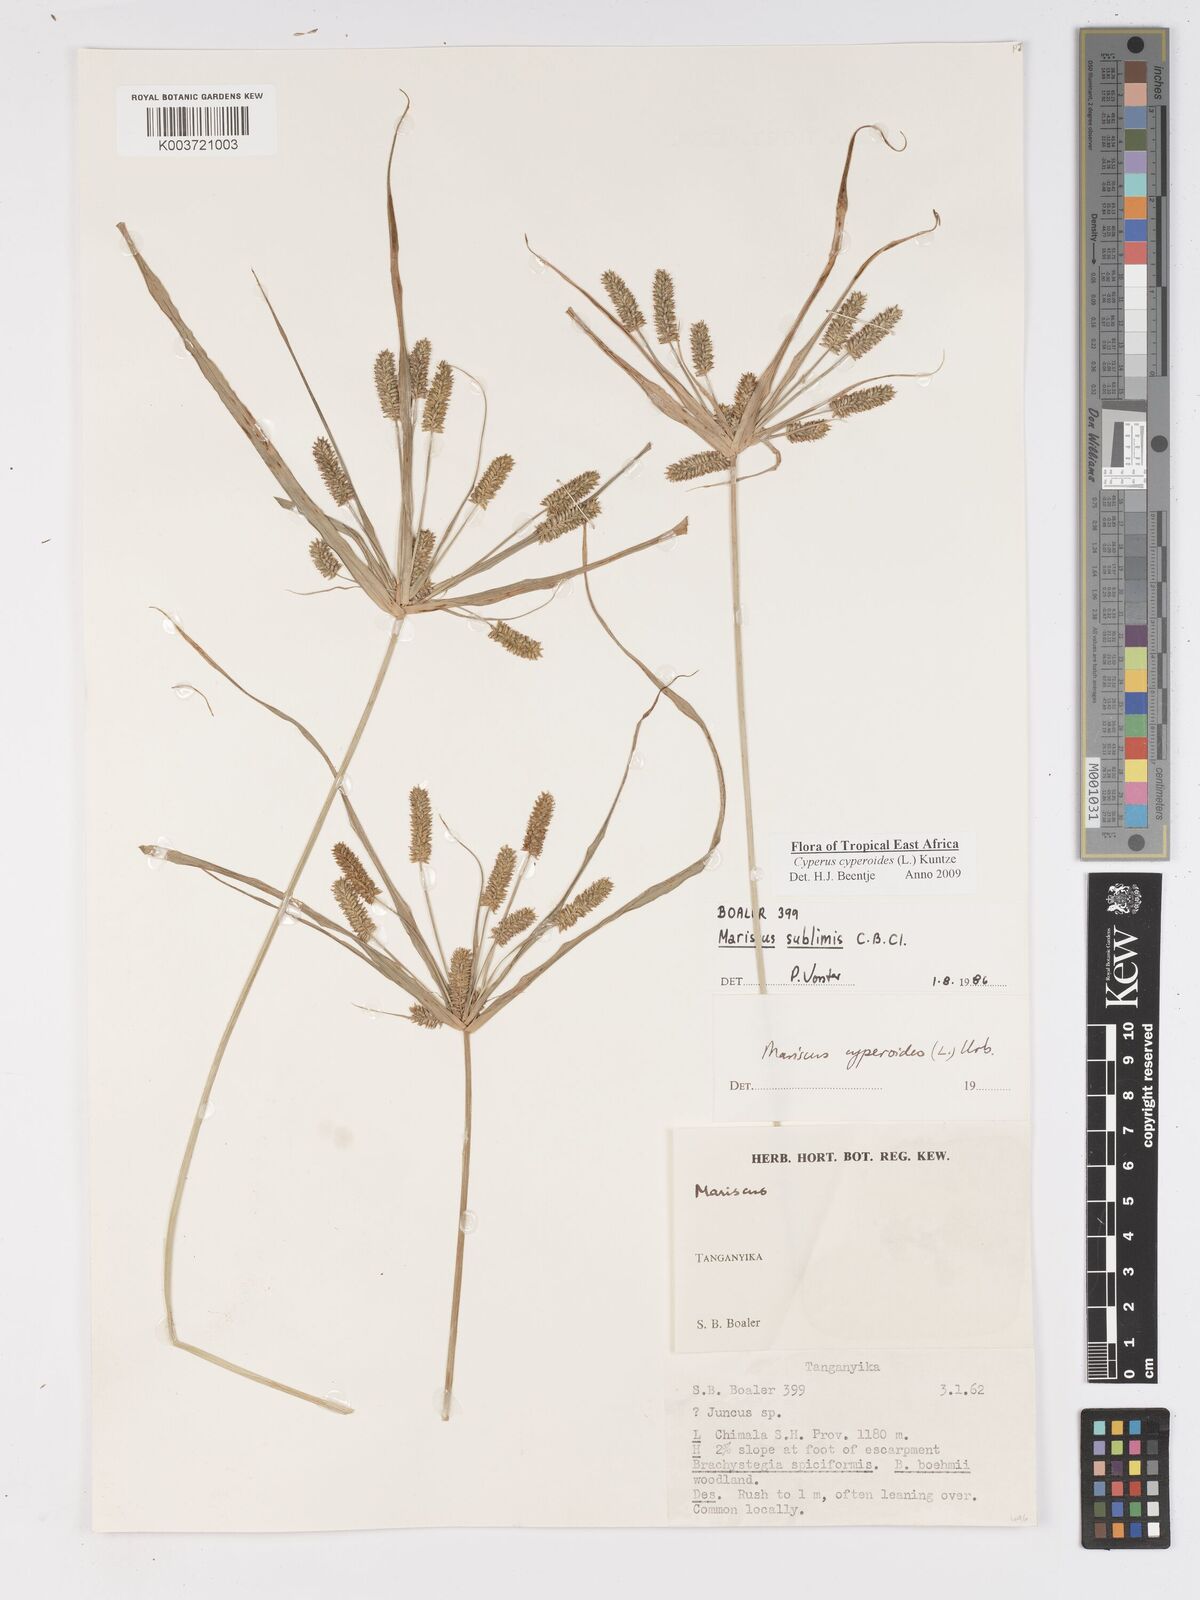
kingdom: Plantae
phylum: Tracheophyta
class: Liliopsida
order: Poales
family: Cyperaceae
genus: Cyperus
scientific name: Cyperus
